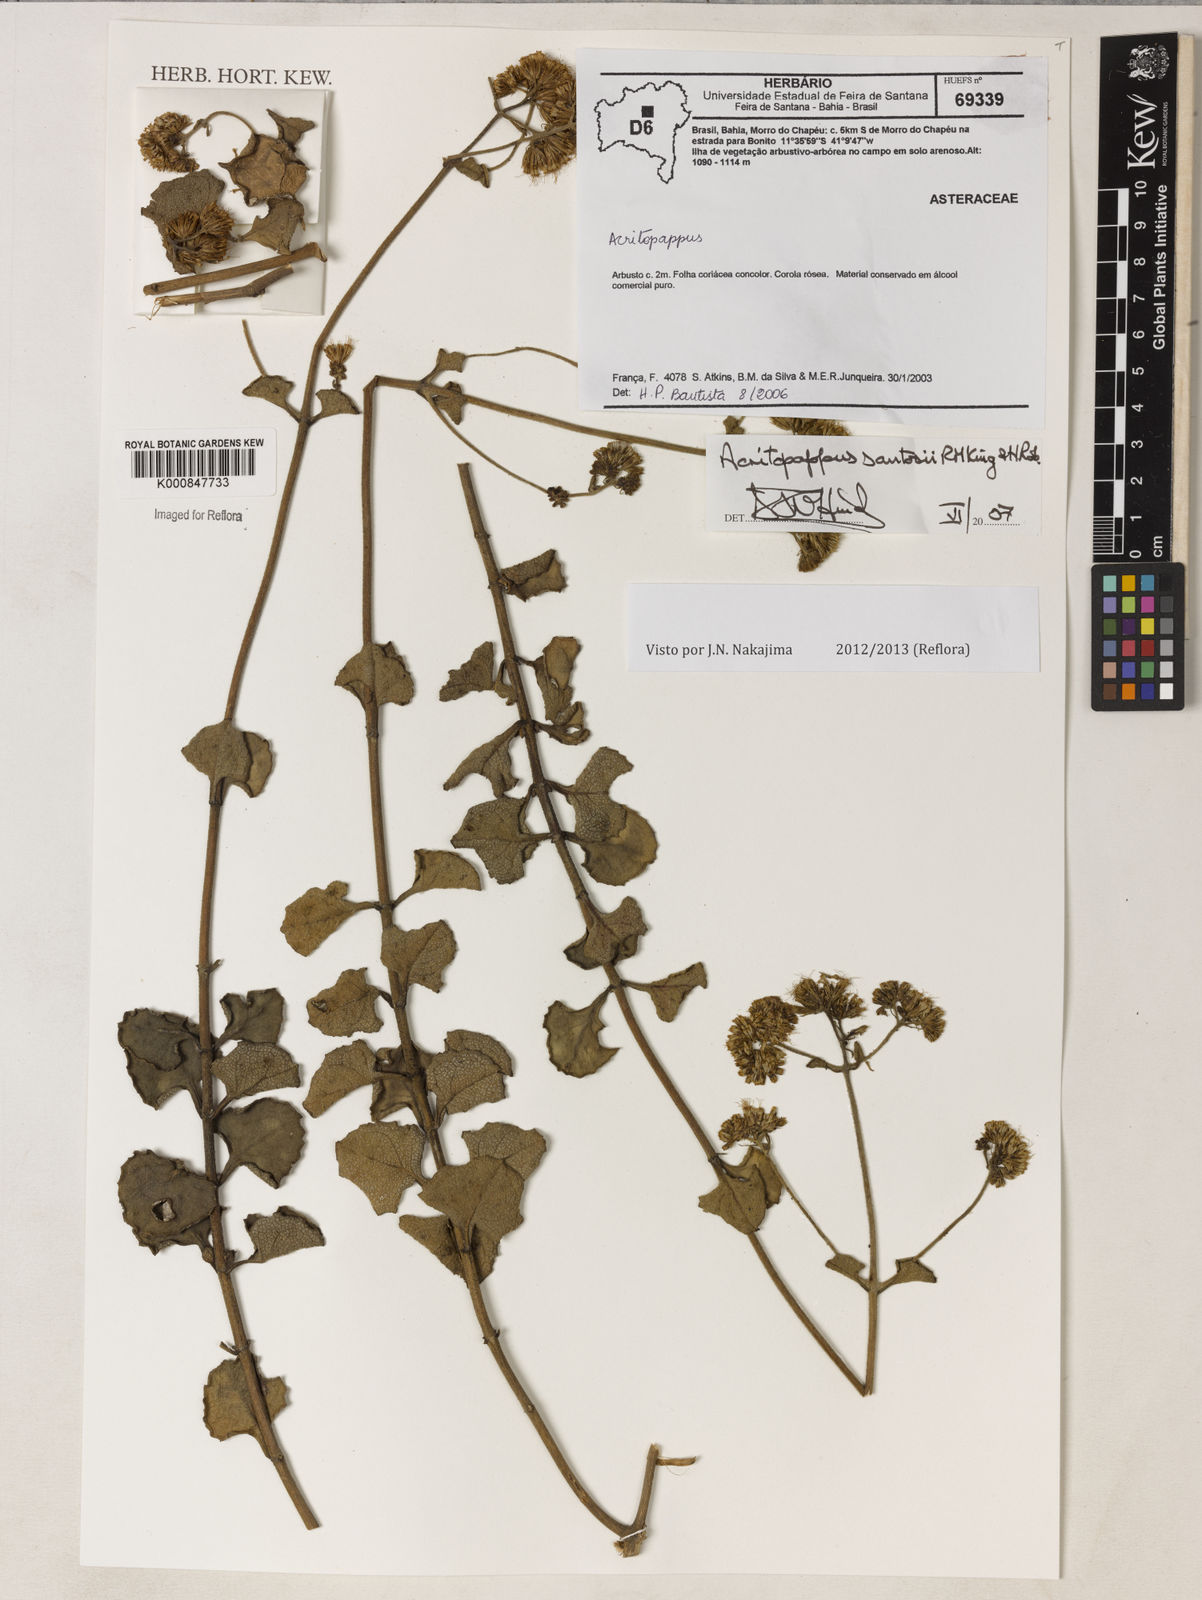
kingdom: Plantae
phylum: Tracheophyta
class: Magnoliopsida
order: Asterales
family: Asteraceae
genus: Acritopappus
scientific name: Acritopappus santosii
